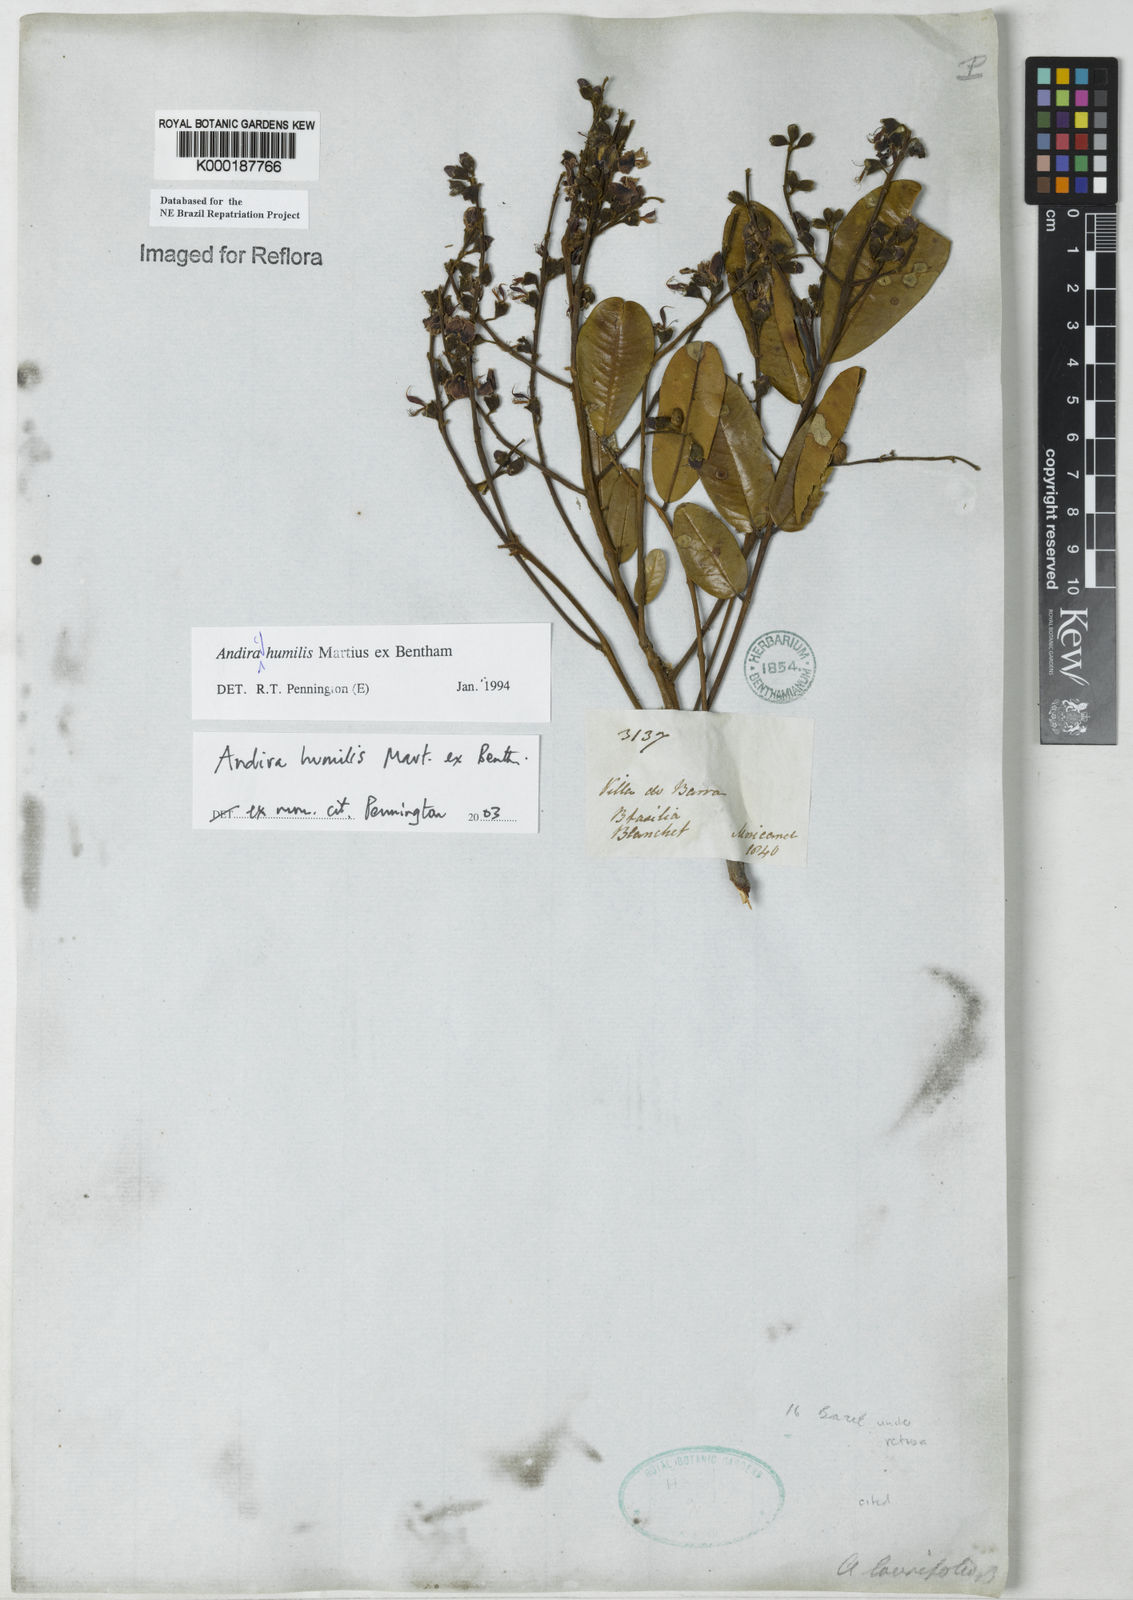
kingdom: Plantae
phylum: Tracheophyta
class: Magnoliopsida
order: Fabales
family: Fabaceae
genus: Andira
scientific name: Andira humilis
